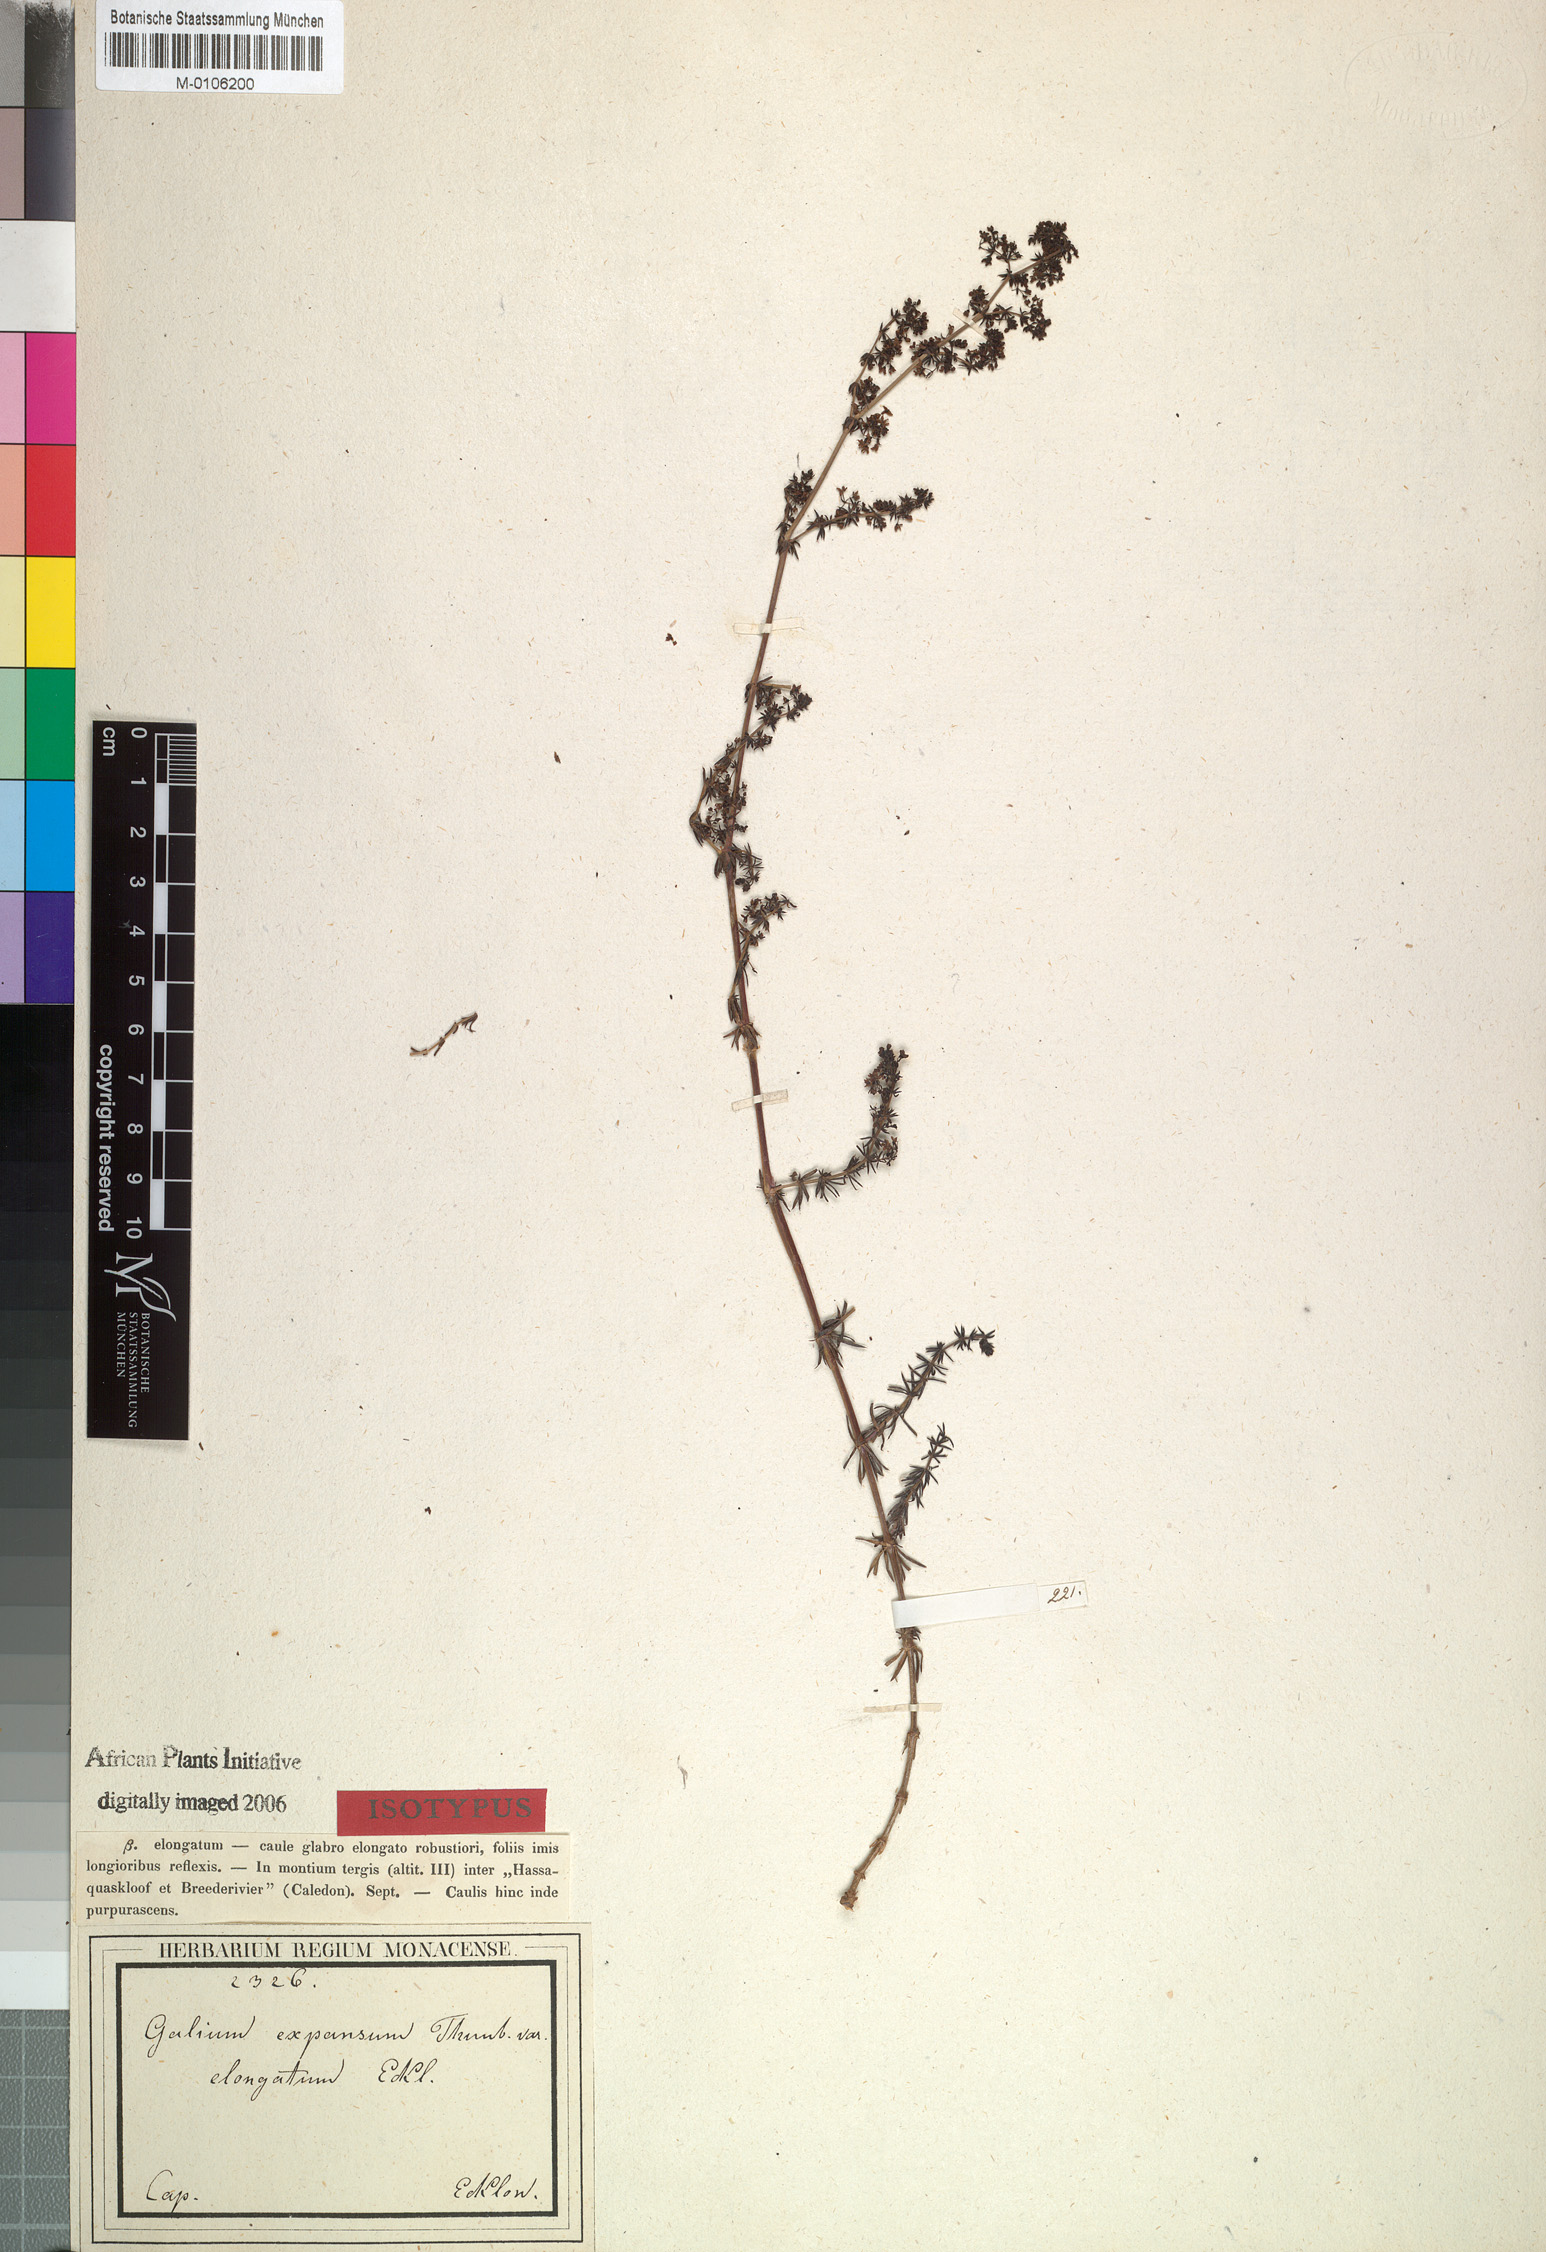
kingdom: Plantae
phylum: Tracheophyta
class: Magnoliopsida
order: Gentianales
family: Rubiaceae
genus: Galium
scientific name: Galium capense
